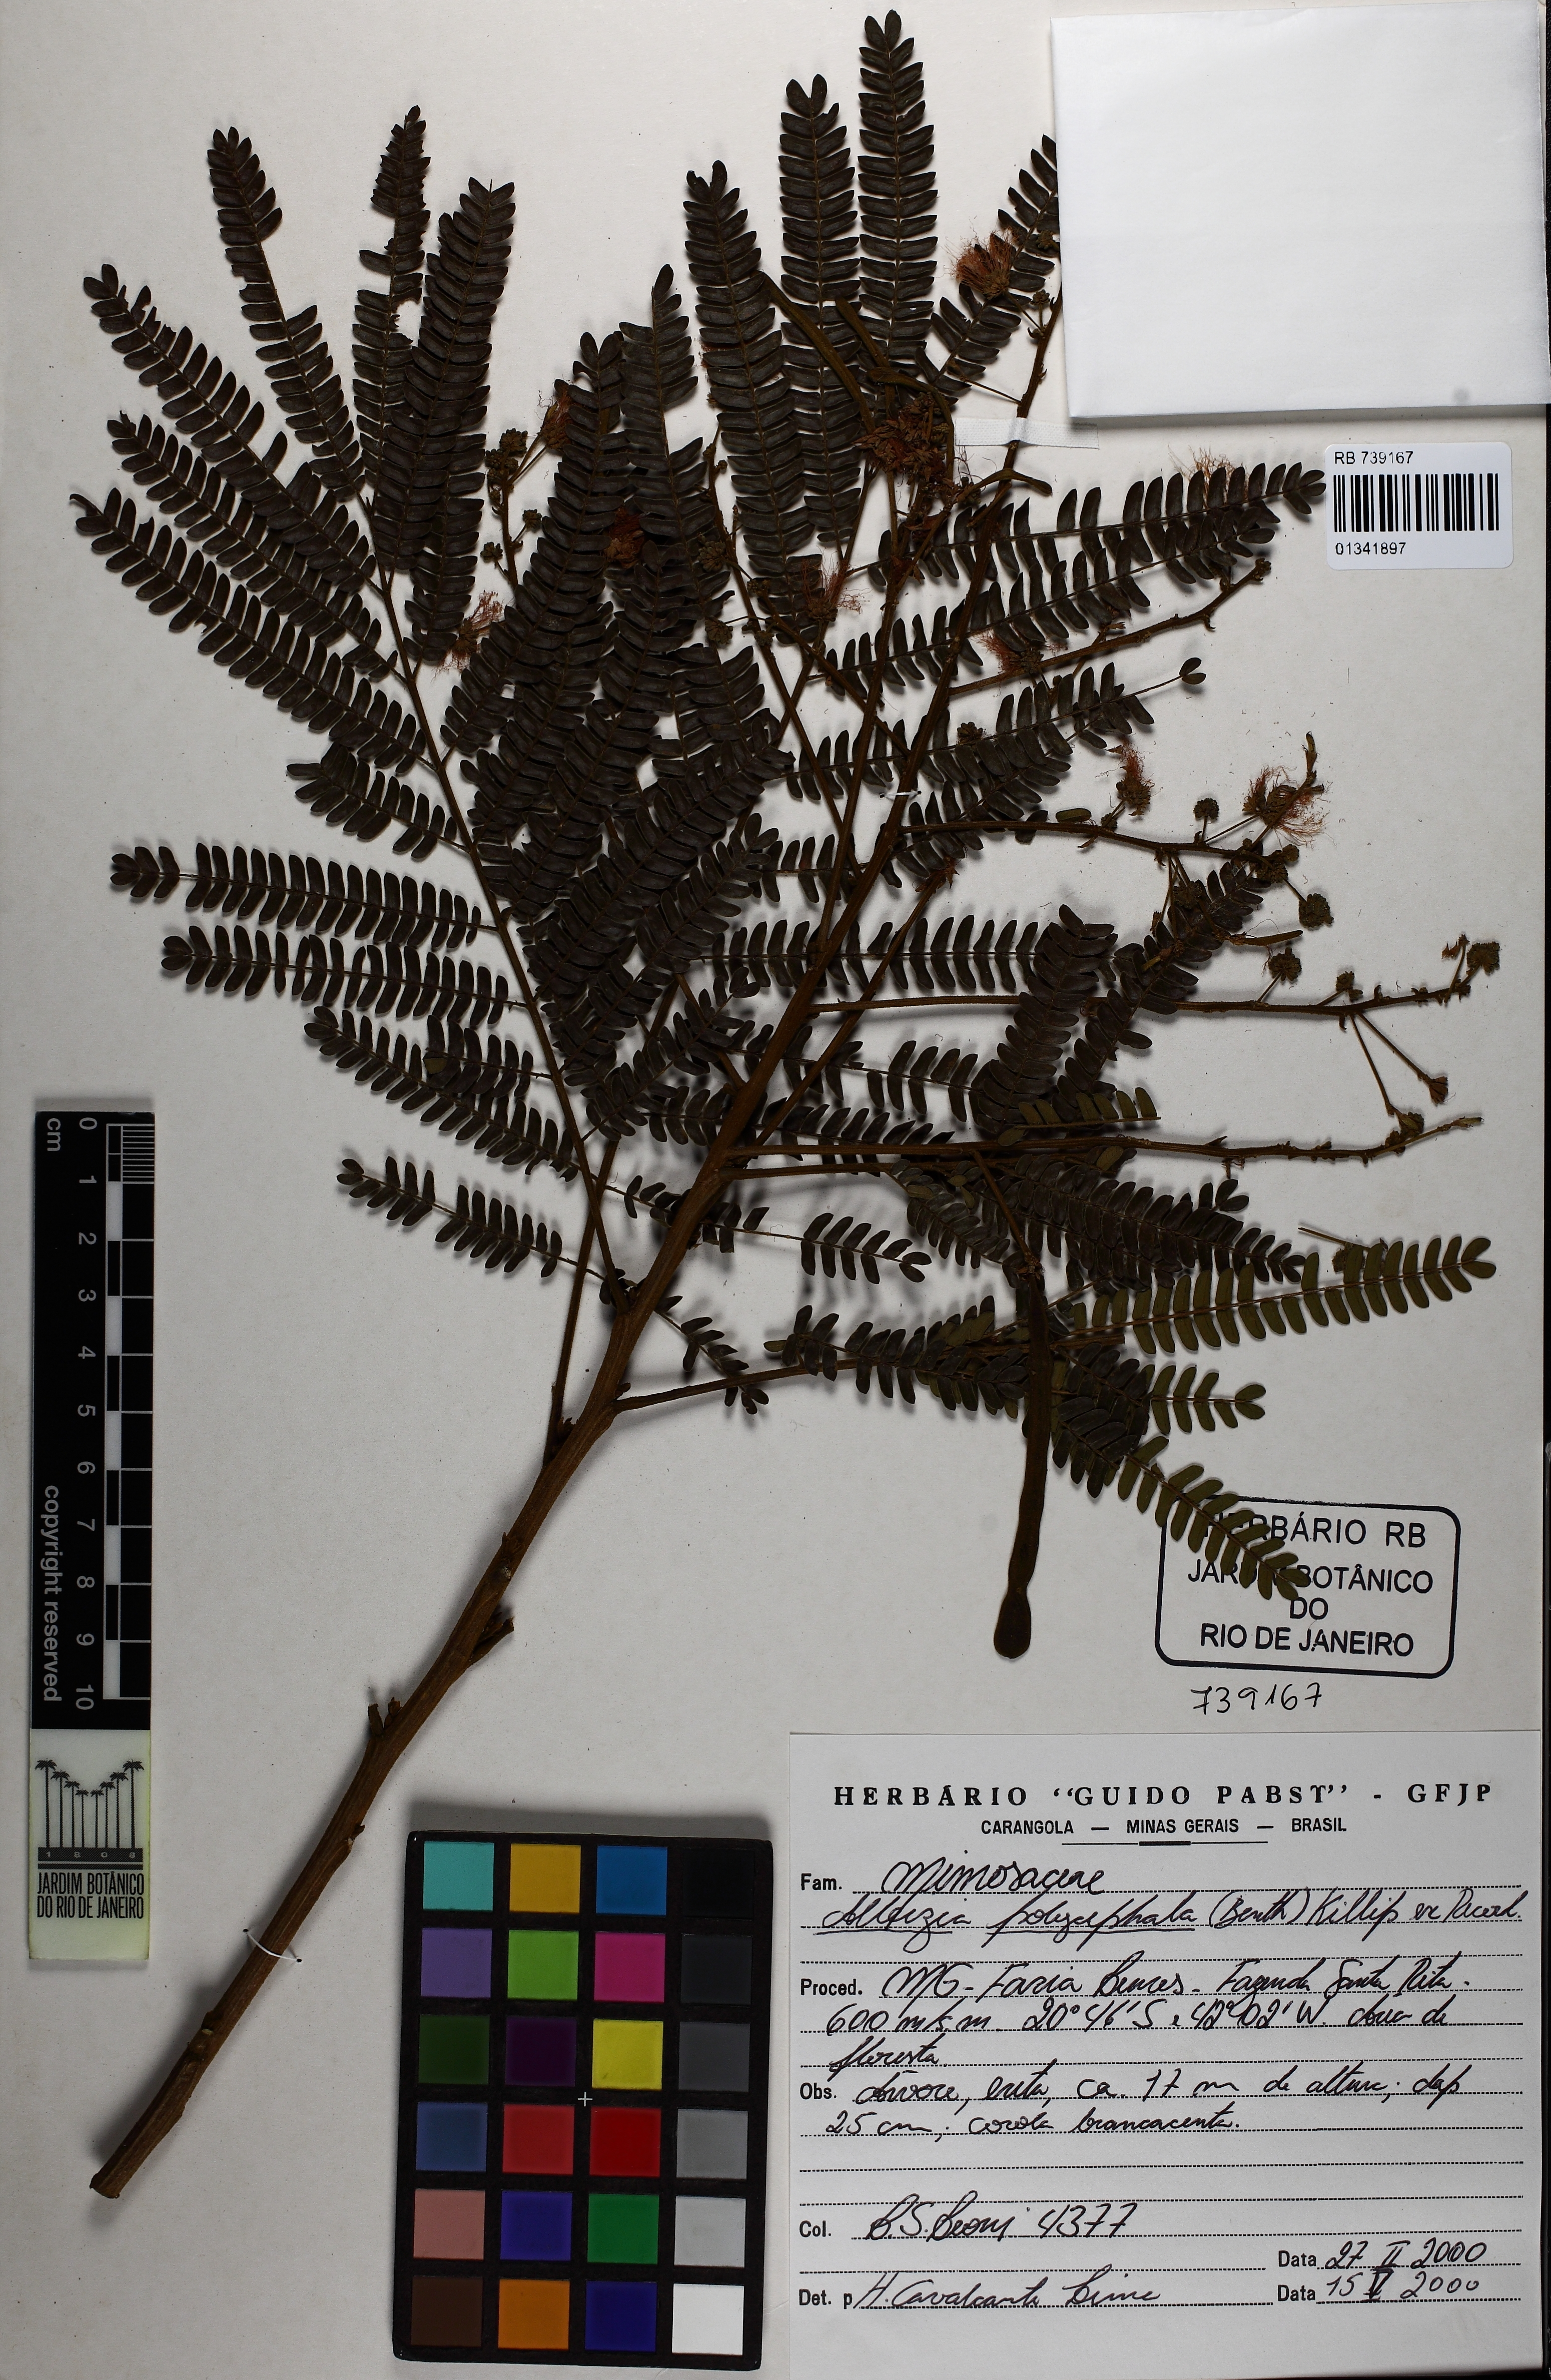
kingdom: Plantae
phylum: Tracheophyta
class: Magnoliopsida
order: Fabales
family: Fabaceae
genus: Albizia
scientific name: Albizia polycephala
